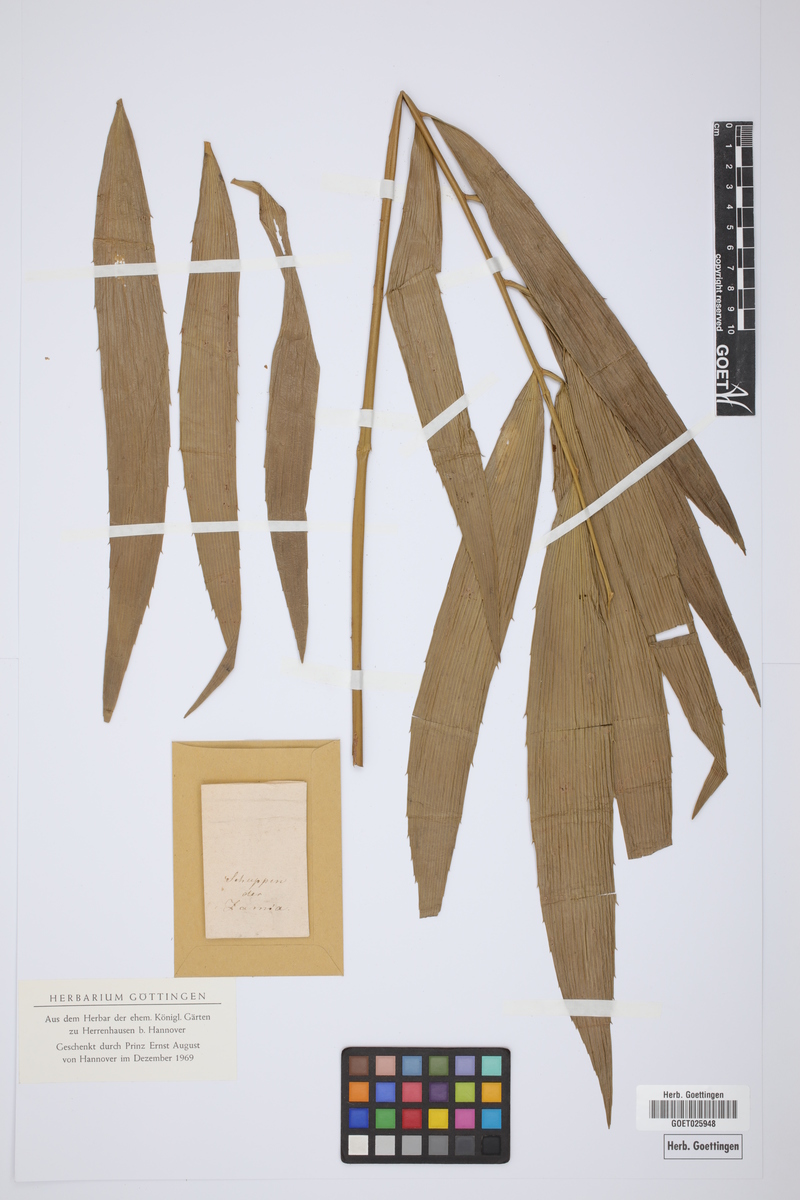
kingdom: Plantae
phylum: Tracheophyta
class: Cycadopsida
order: Cycadales
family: Zamiaceae
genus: Zamia
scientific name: Zamia
